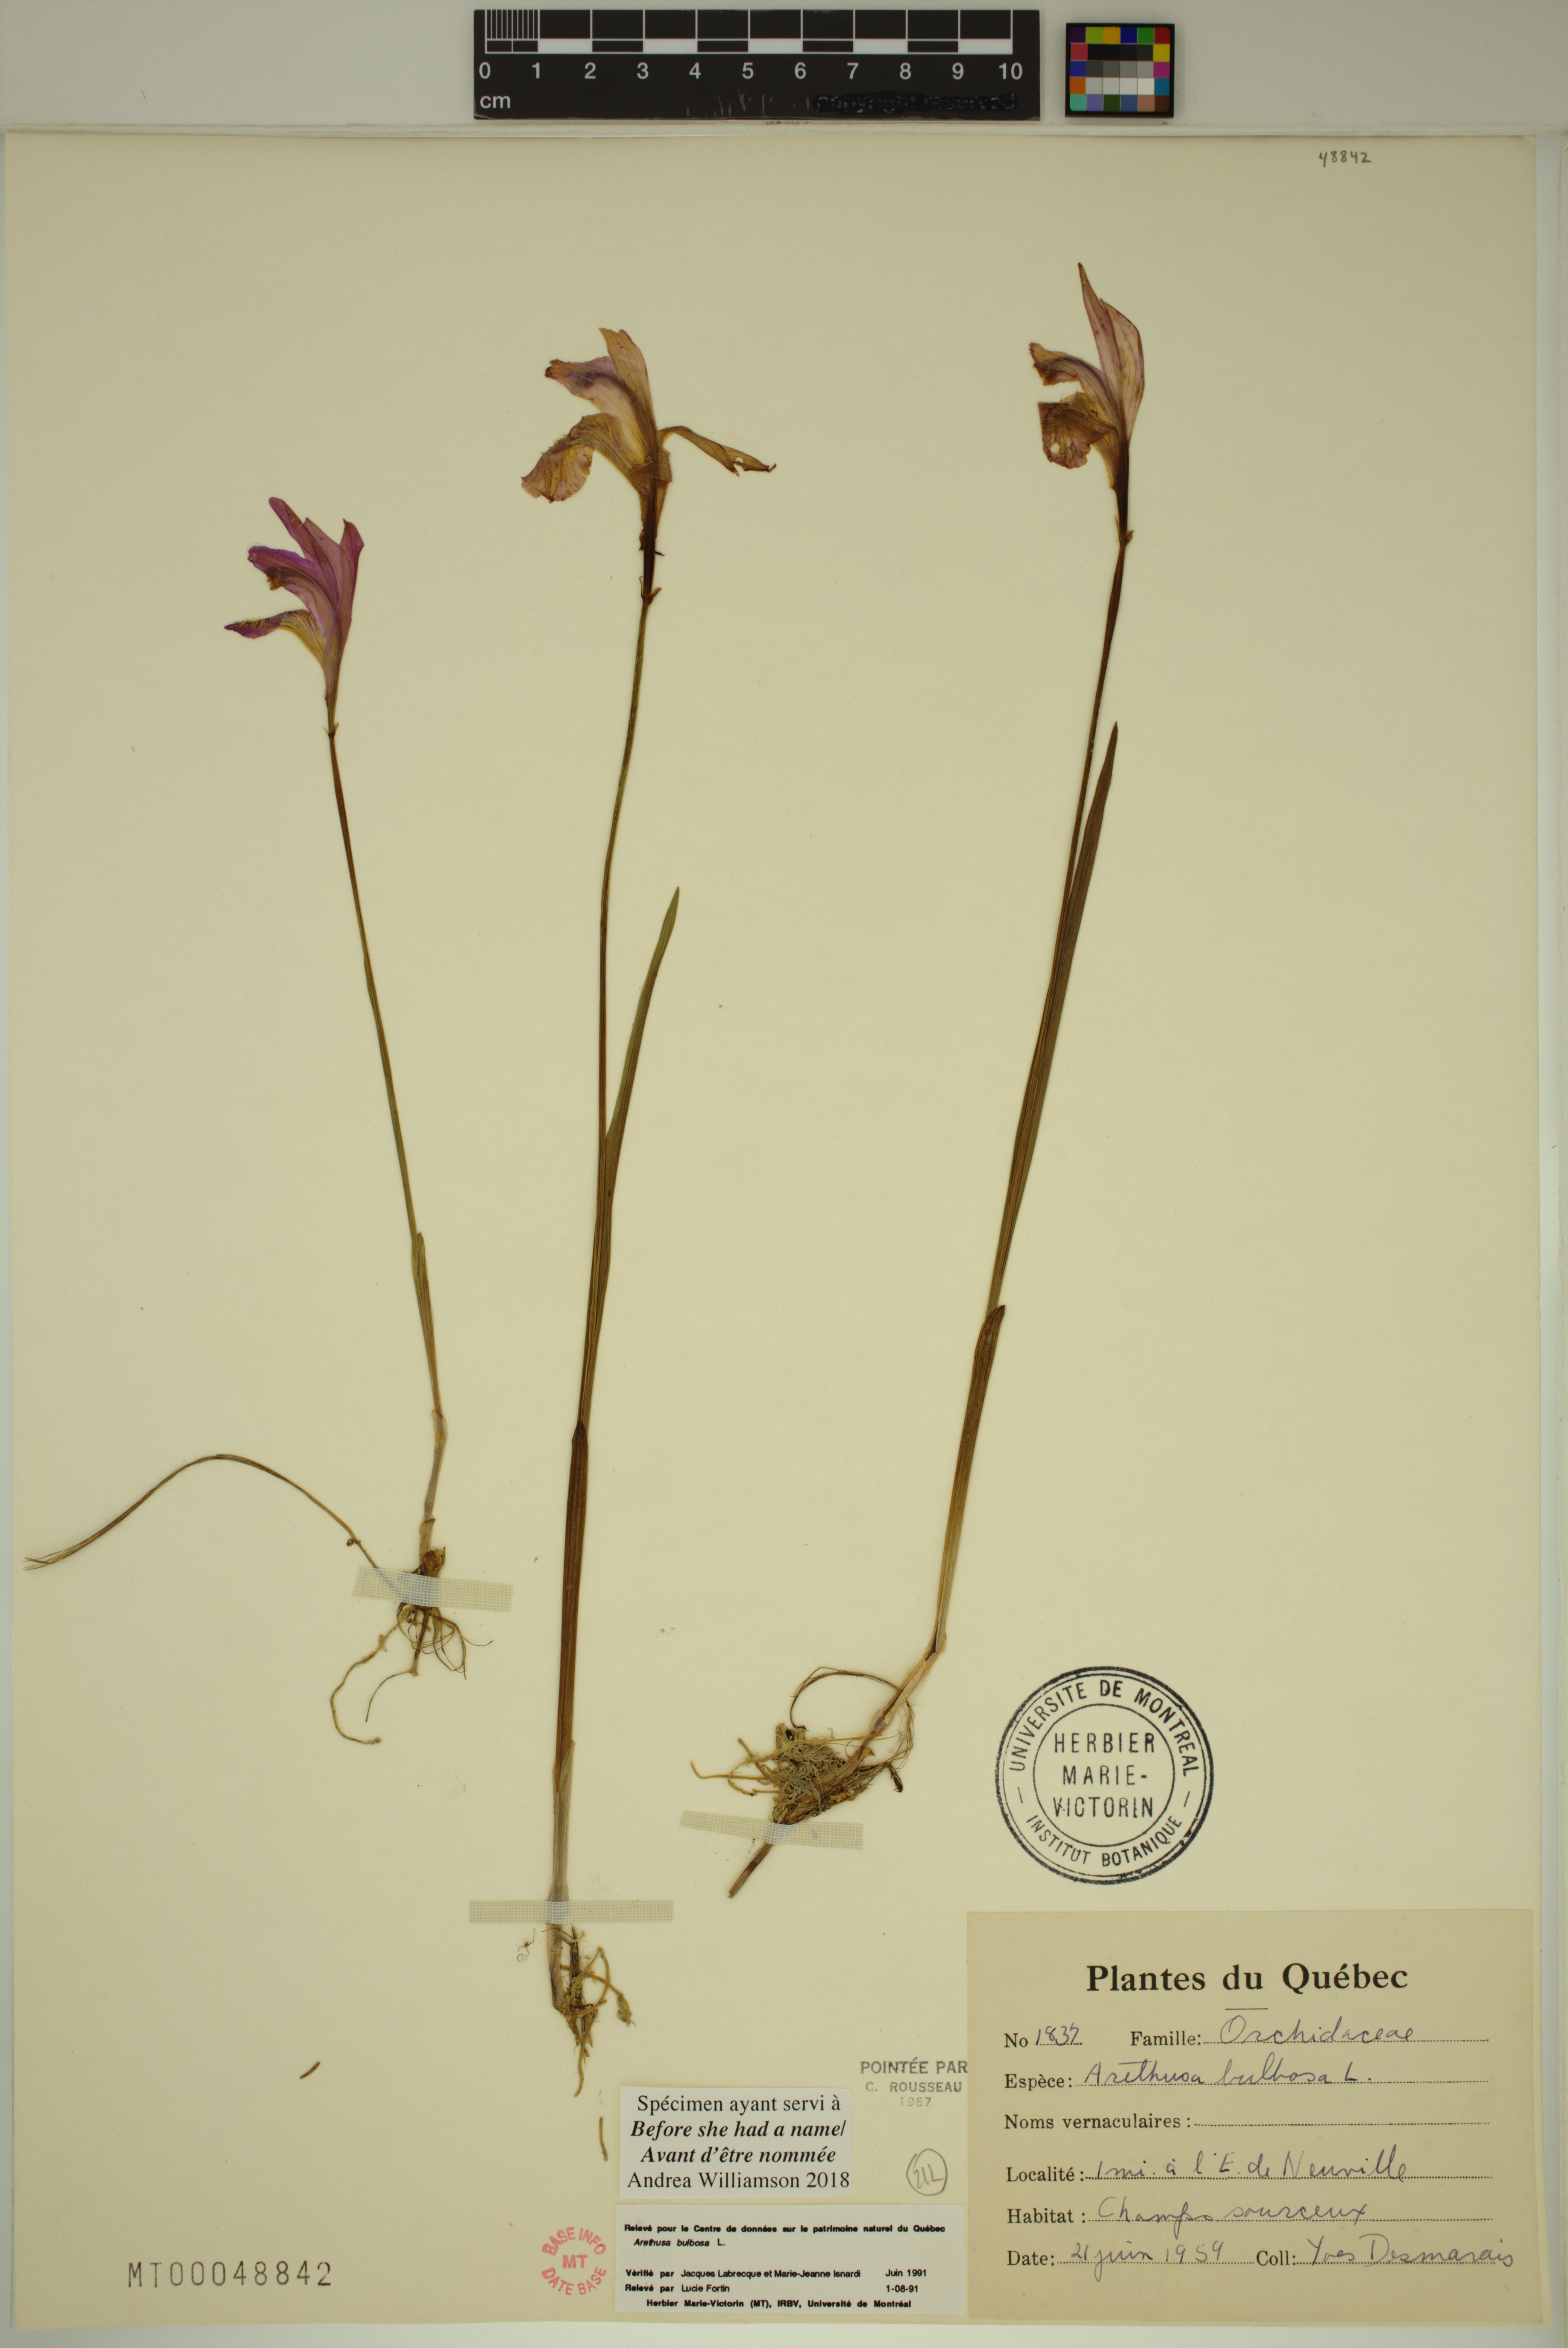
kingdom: Plantae
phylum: Tracheophyta
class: Liliopsida
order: Asparagales
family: Orchidaceae
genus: Arethusa
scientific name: Arethusa bulbosa
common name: Arethusa
